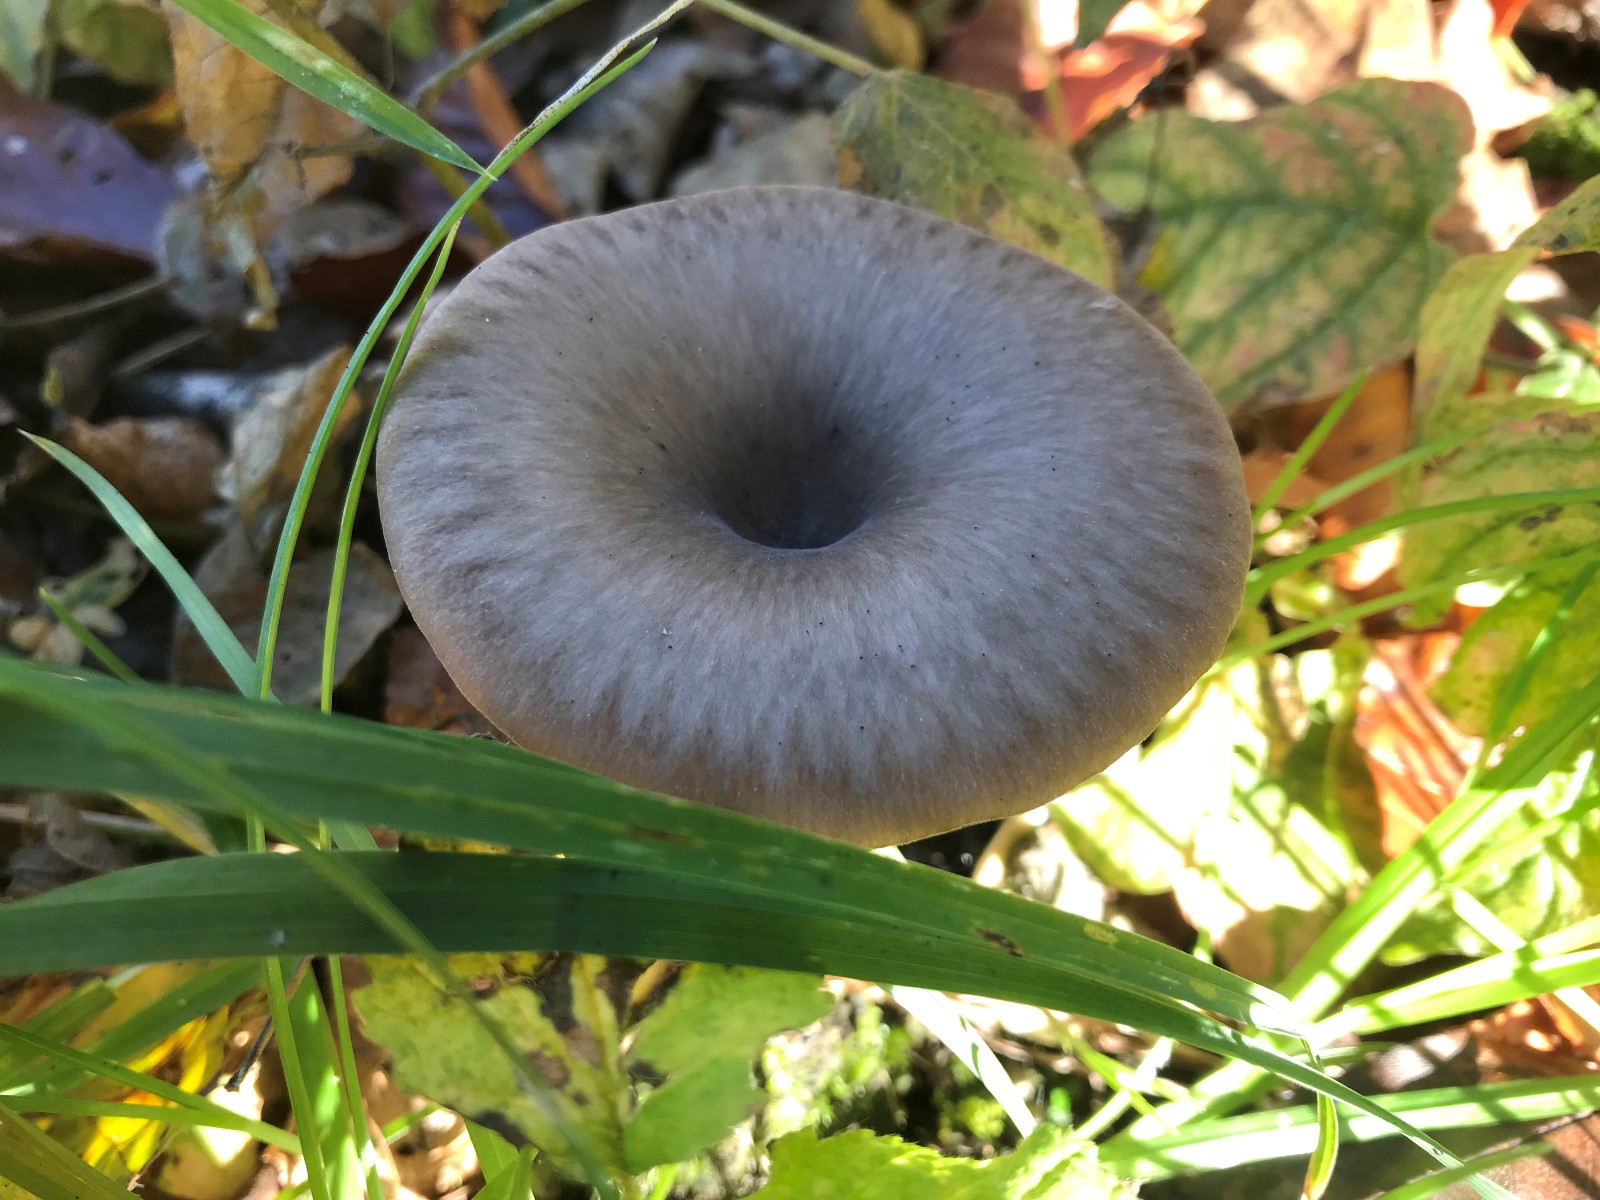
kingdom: Fungi
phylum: Basidiomycota
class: Agaricomycetes
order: Agaricales
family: Pseudoclitocybaceae
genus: Pseudoclitocybe
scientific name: Pseudoclitocybe cyathiformis
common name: almindelig bægertragthat
